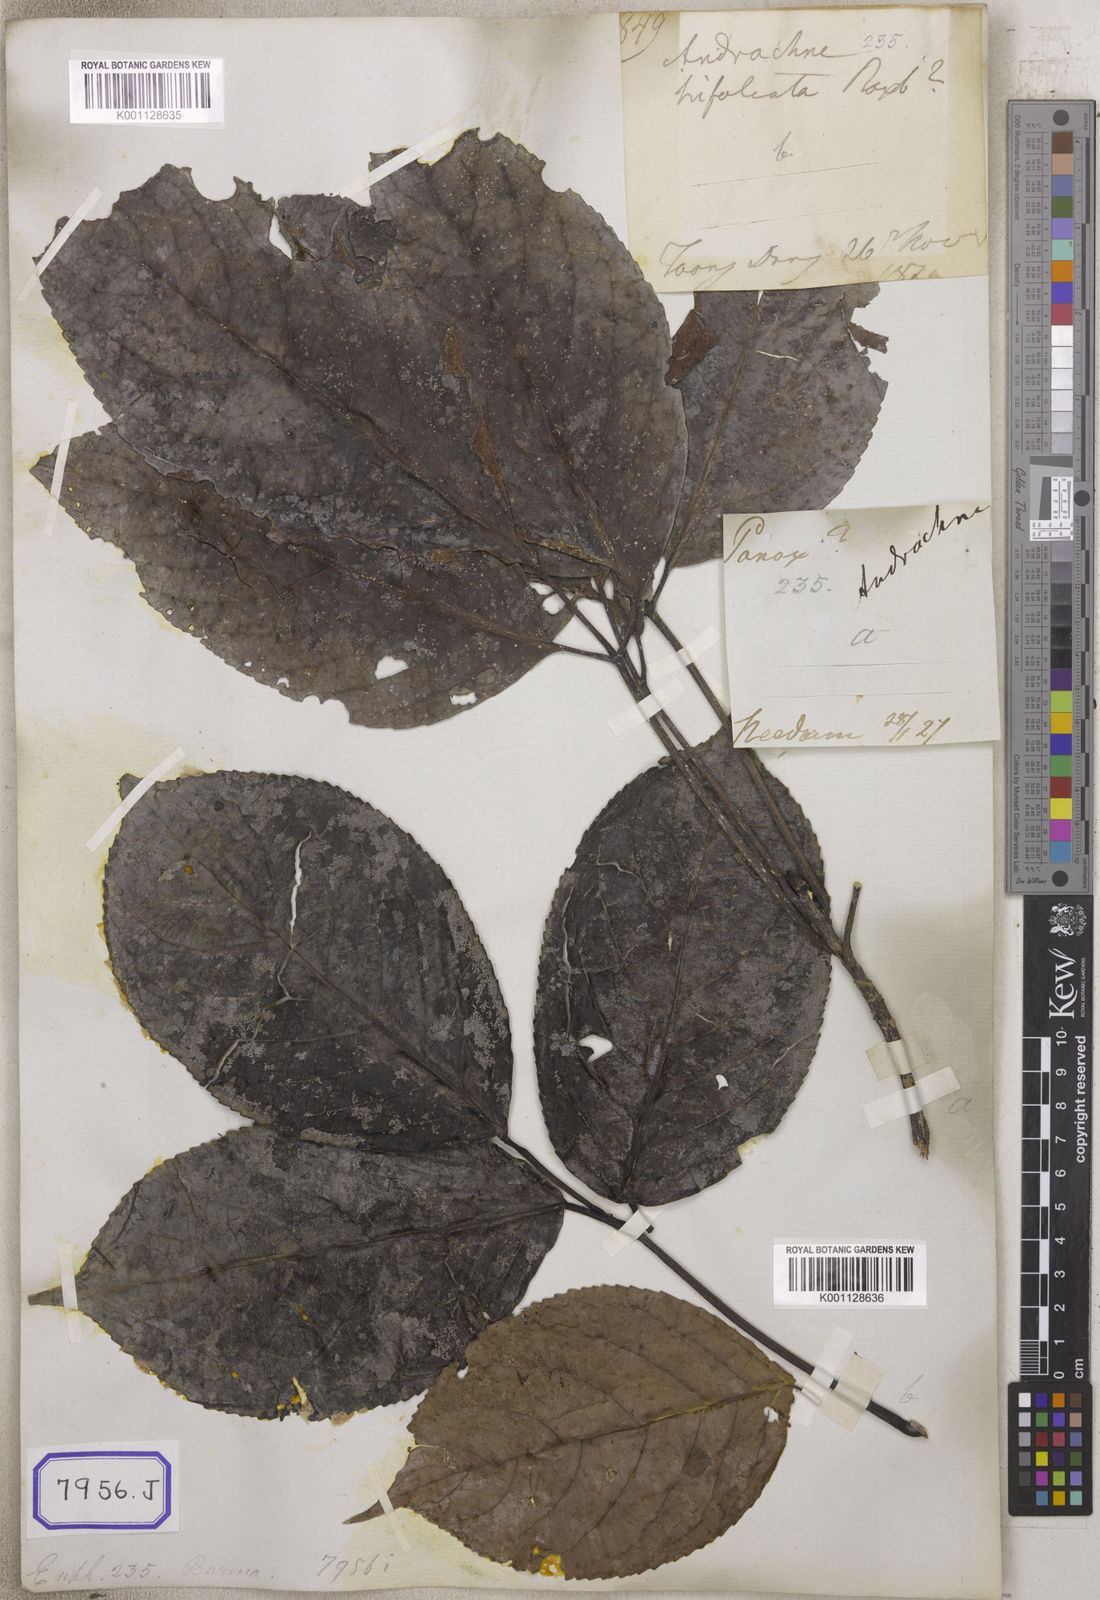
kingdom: Plantae
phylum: Tracheophyta
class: Magnoliopsida
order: Malpighiales
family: Euphorbiaceae
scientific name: Euphorbiaceae
